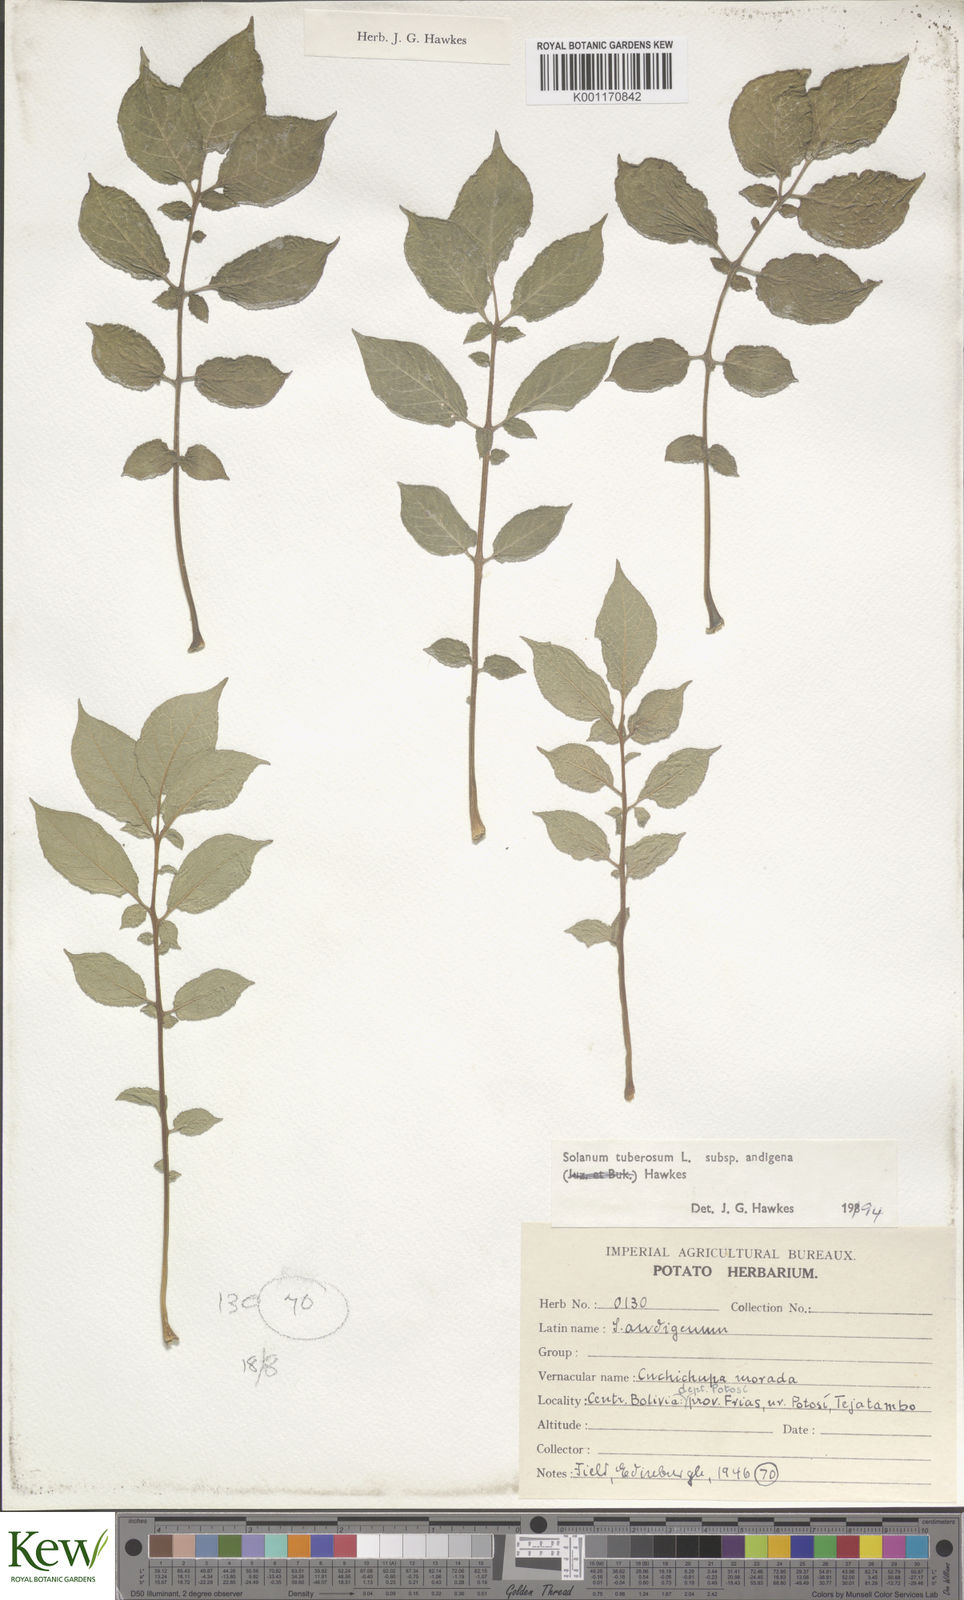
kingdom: Plantae
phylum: Tracheophyta
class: Magnoliopsida
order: Solanales
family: Solanaceae
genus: Solanum
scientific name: Solanum tuberosum
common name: Potato
